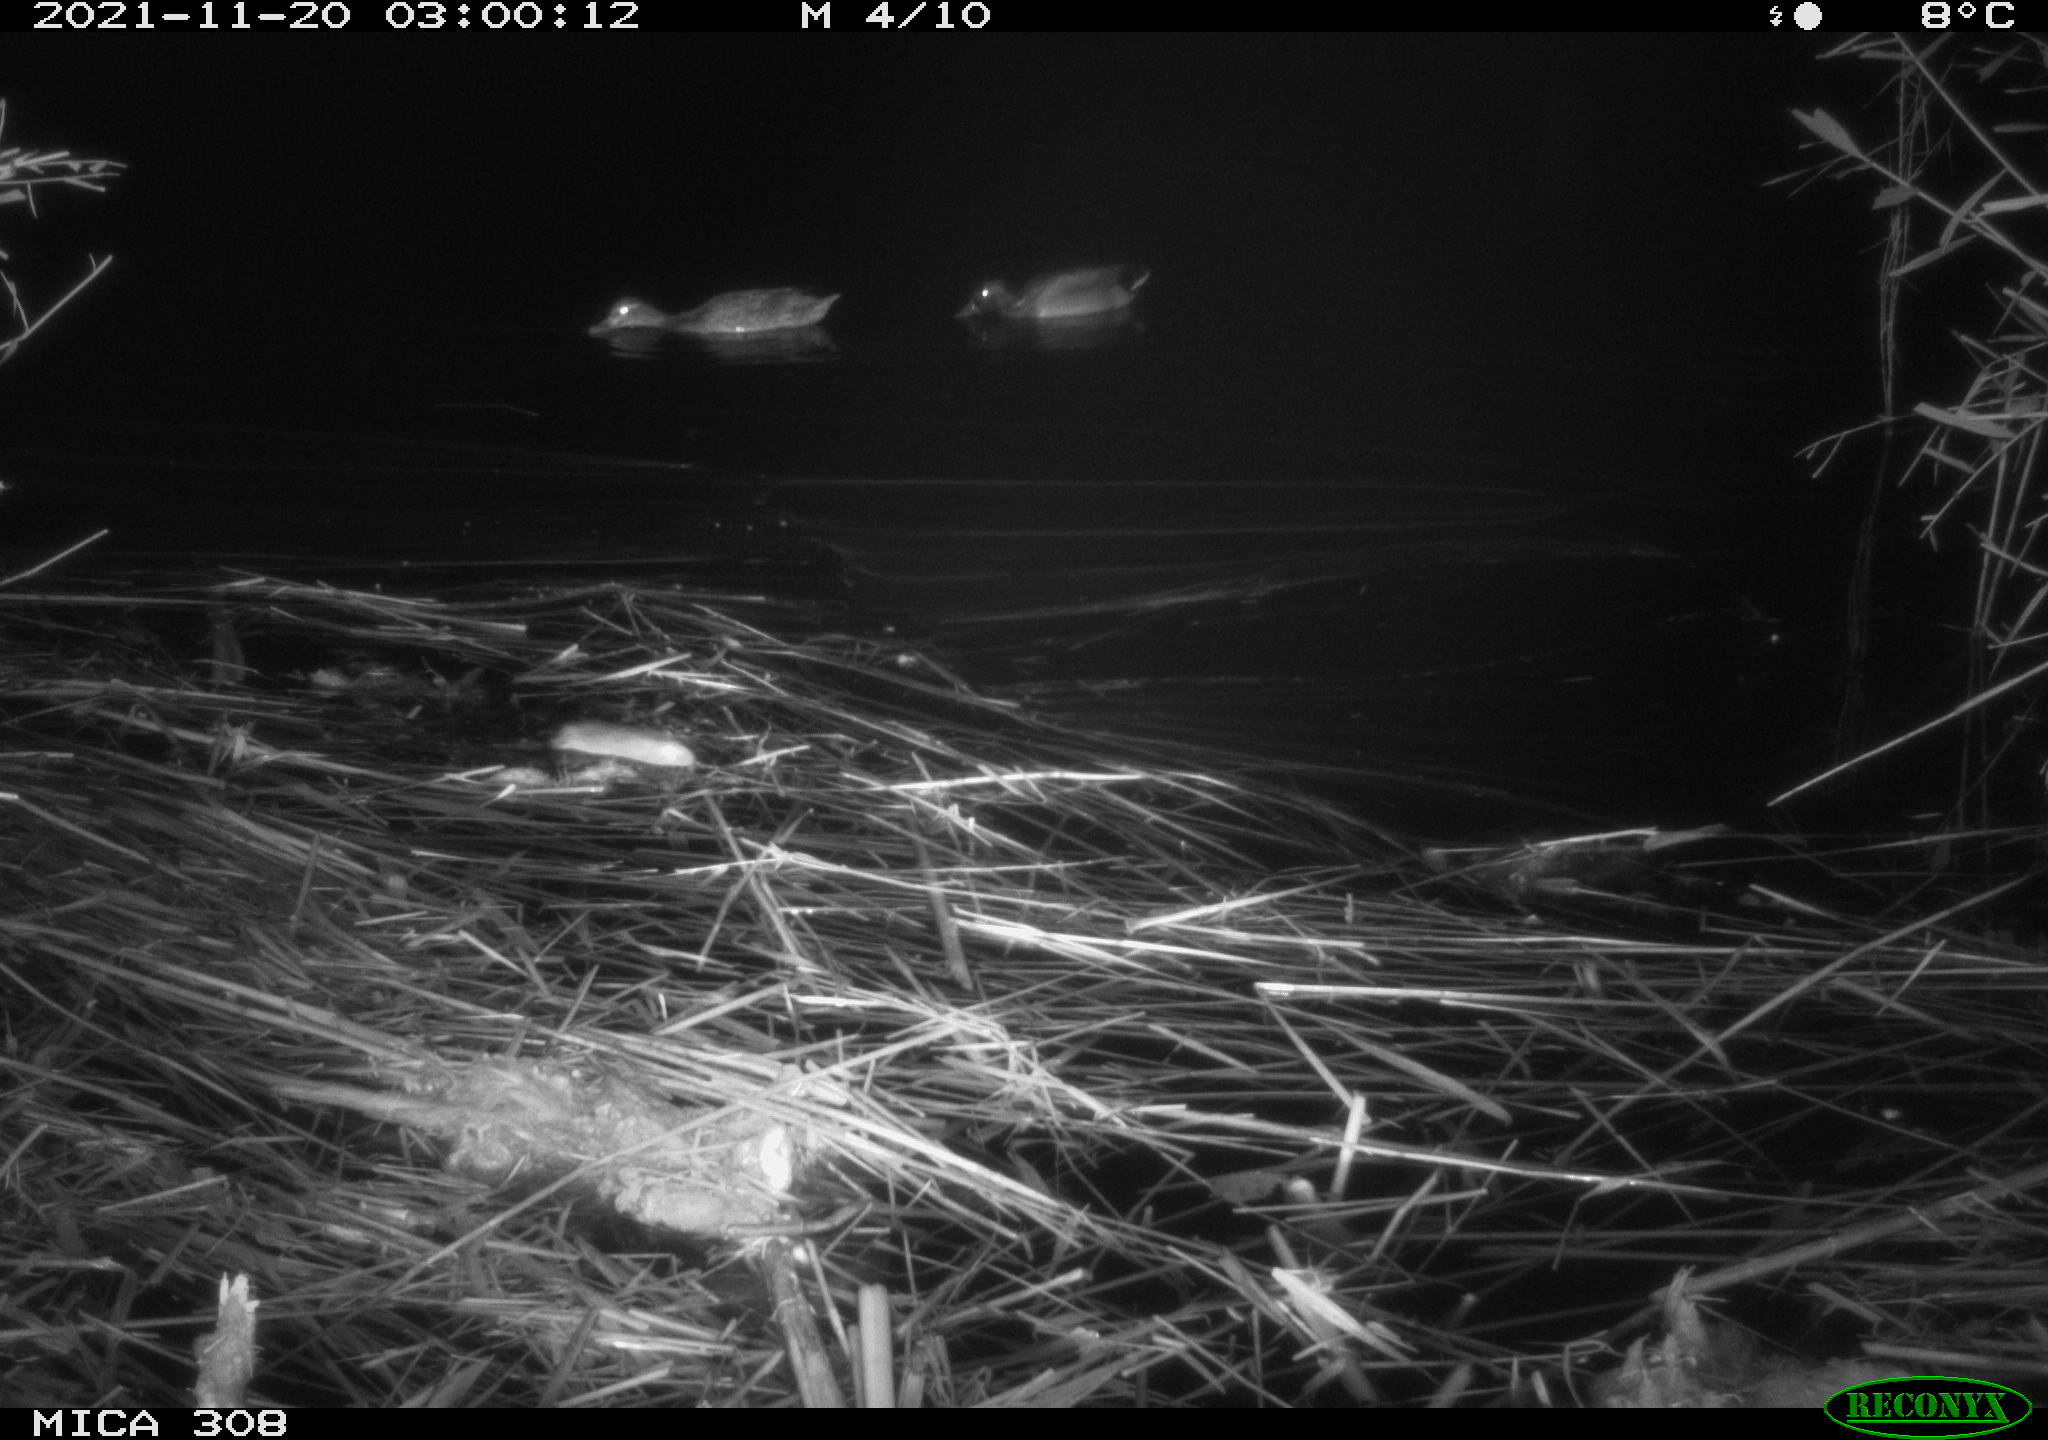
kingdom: Animalia
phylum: Chordata
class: Mammalia
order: Rodentia
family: Muridae
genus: Rattus
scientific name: Rattus norvegicus
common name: Brown rat
